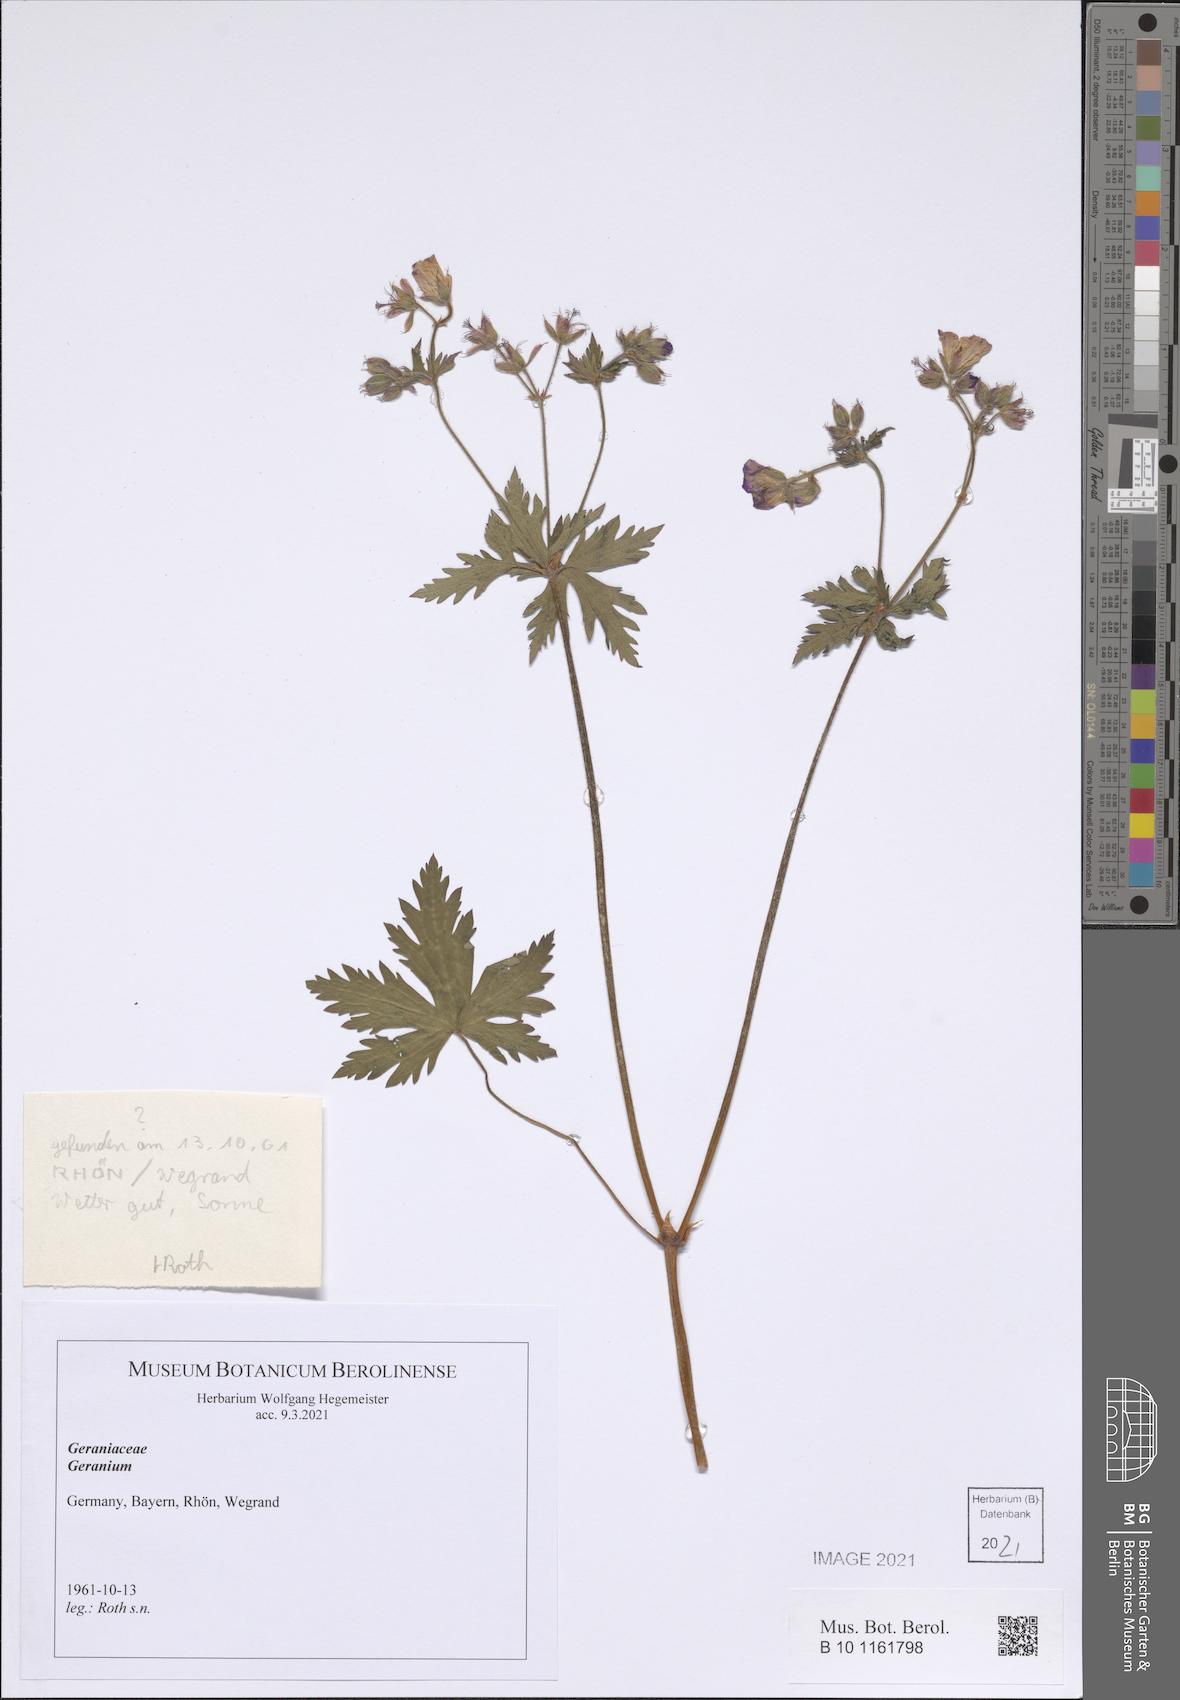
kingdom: Plantae
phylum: Tracheophyta
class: Magnoliopsida
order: Geraniales
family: Geraniaceae
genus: Geranium
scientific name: Geranium
